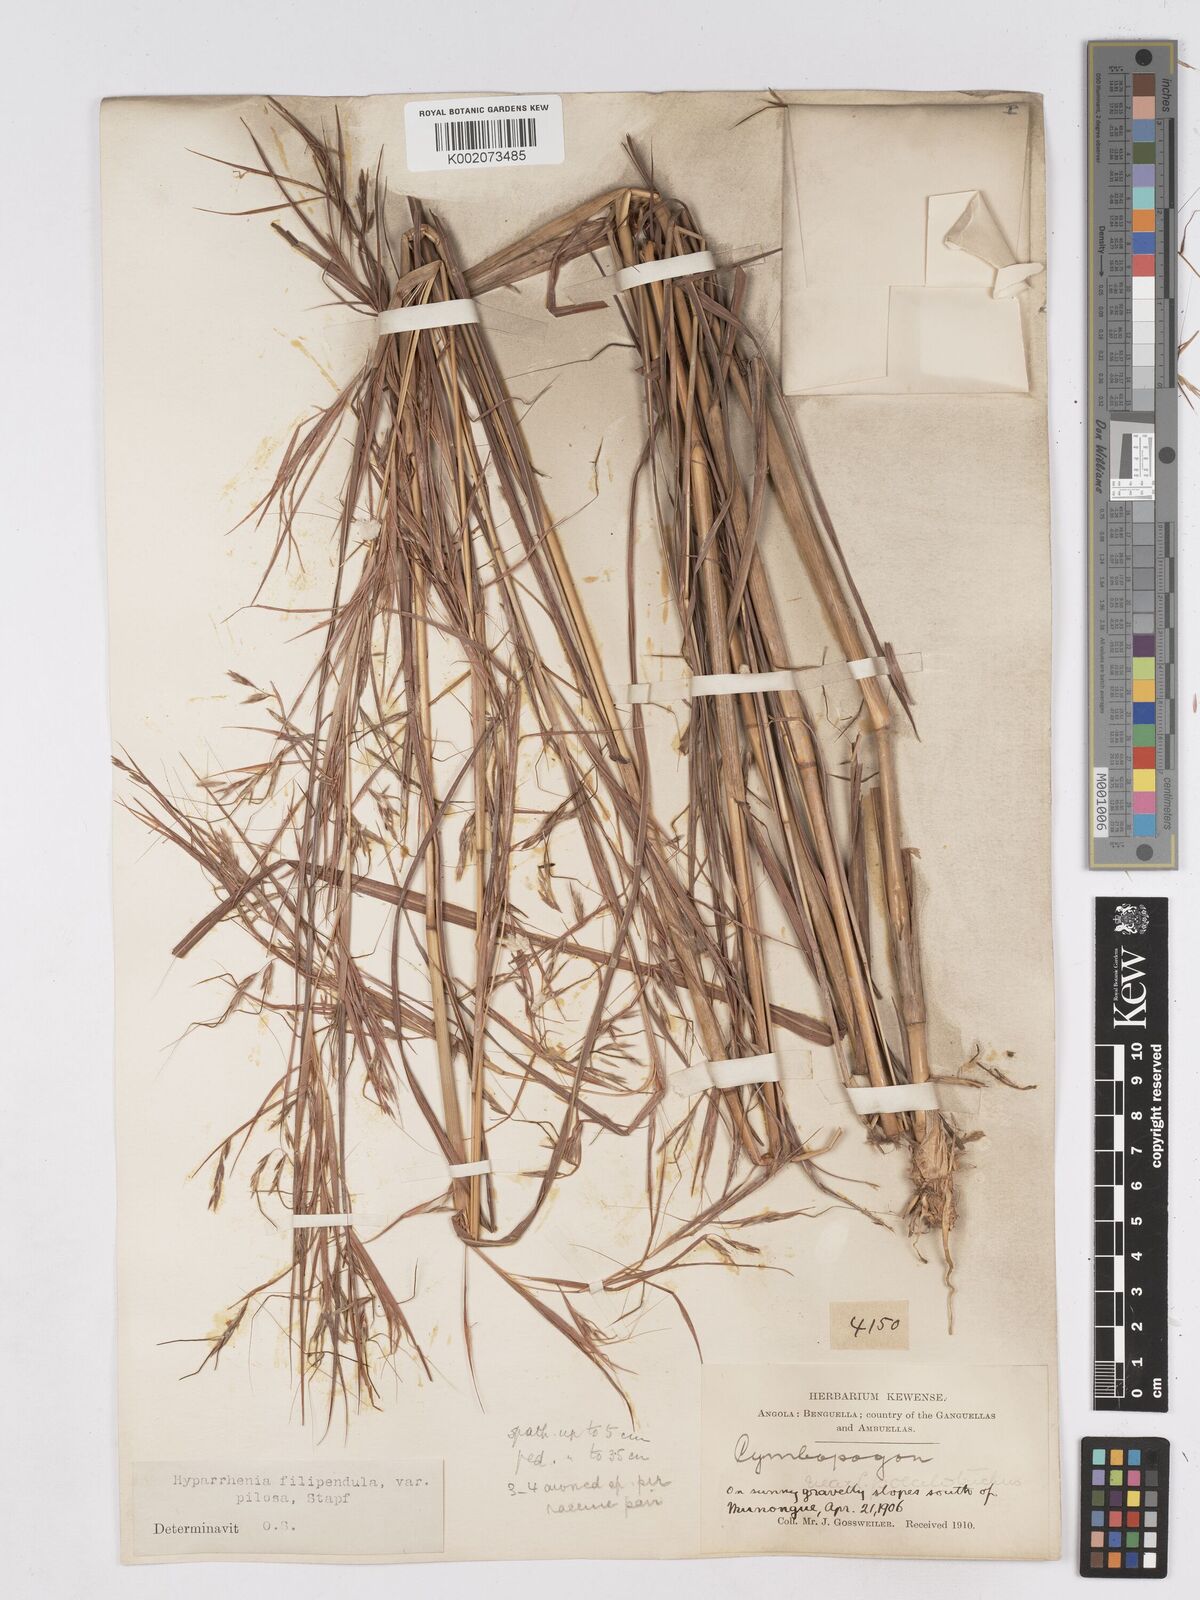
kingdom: Plantae
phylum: Tracheophyta
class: Liliopsida
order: Poales
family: Poaceae
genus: Hyparrhenia
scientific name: Hyparrhenia filipendula
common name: Tambookie grass
